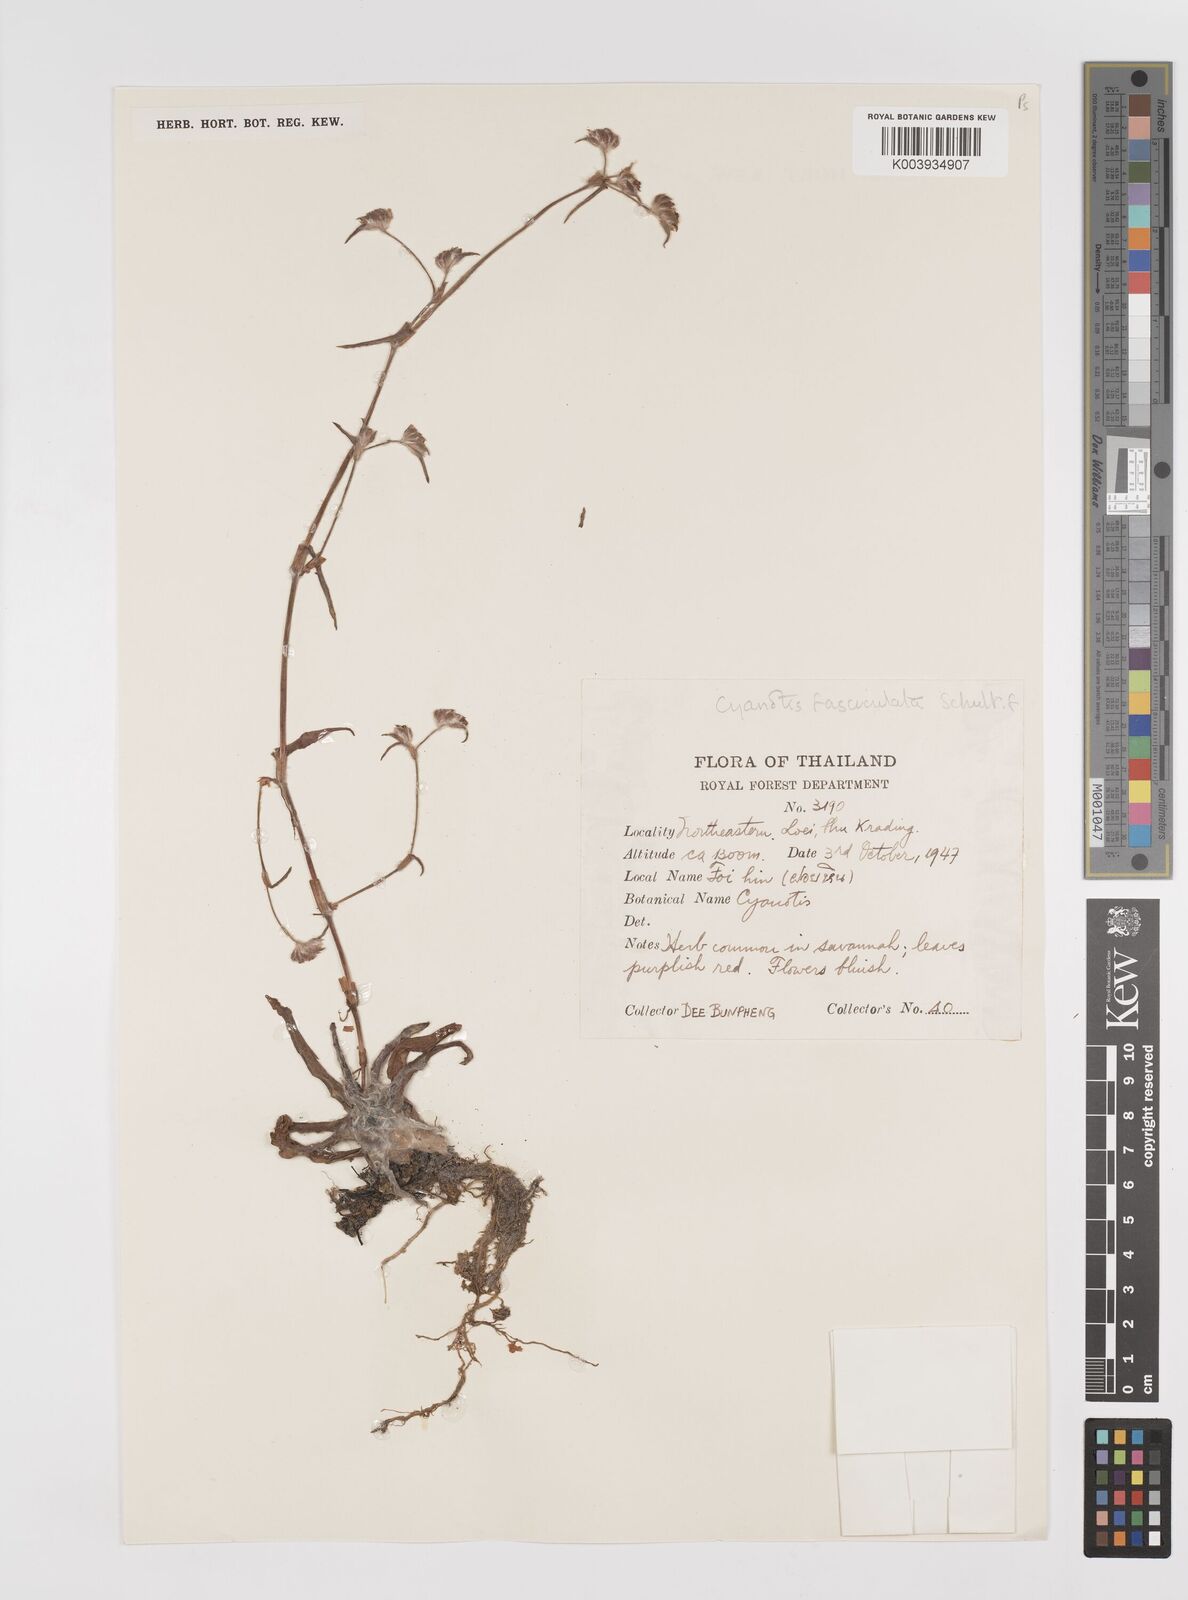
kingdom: Plantae
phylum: Tracheophyta
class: Liliopsida
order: Commelinales
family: Commelinaceae
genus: Cyanotis
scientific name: Cyanotis fasciculata
